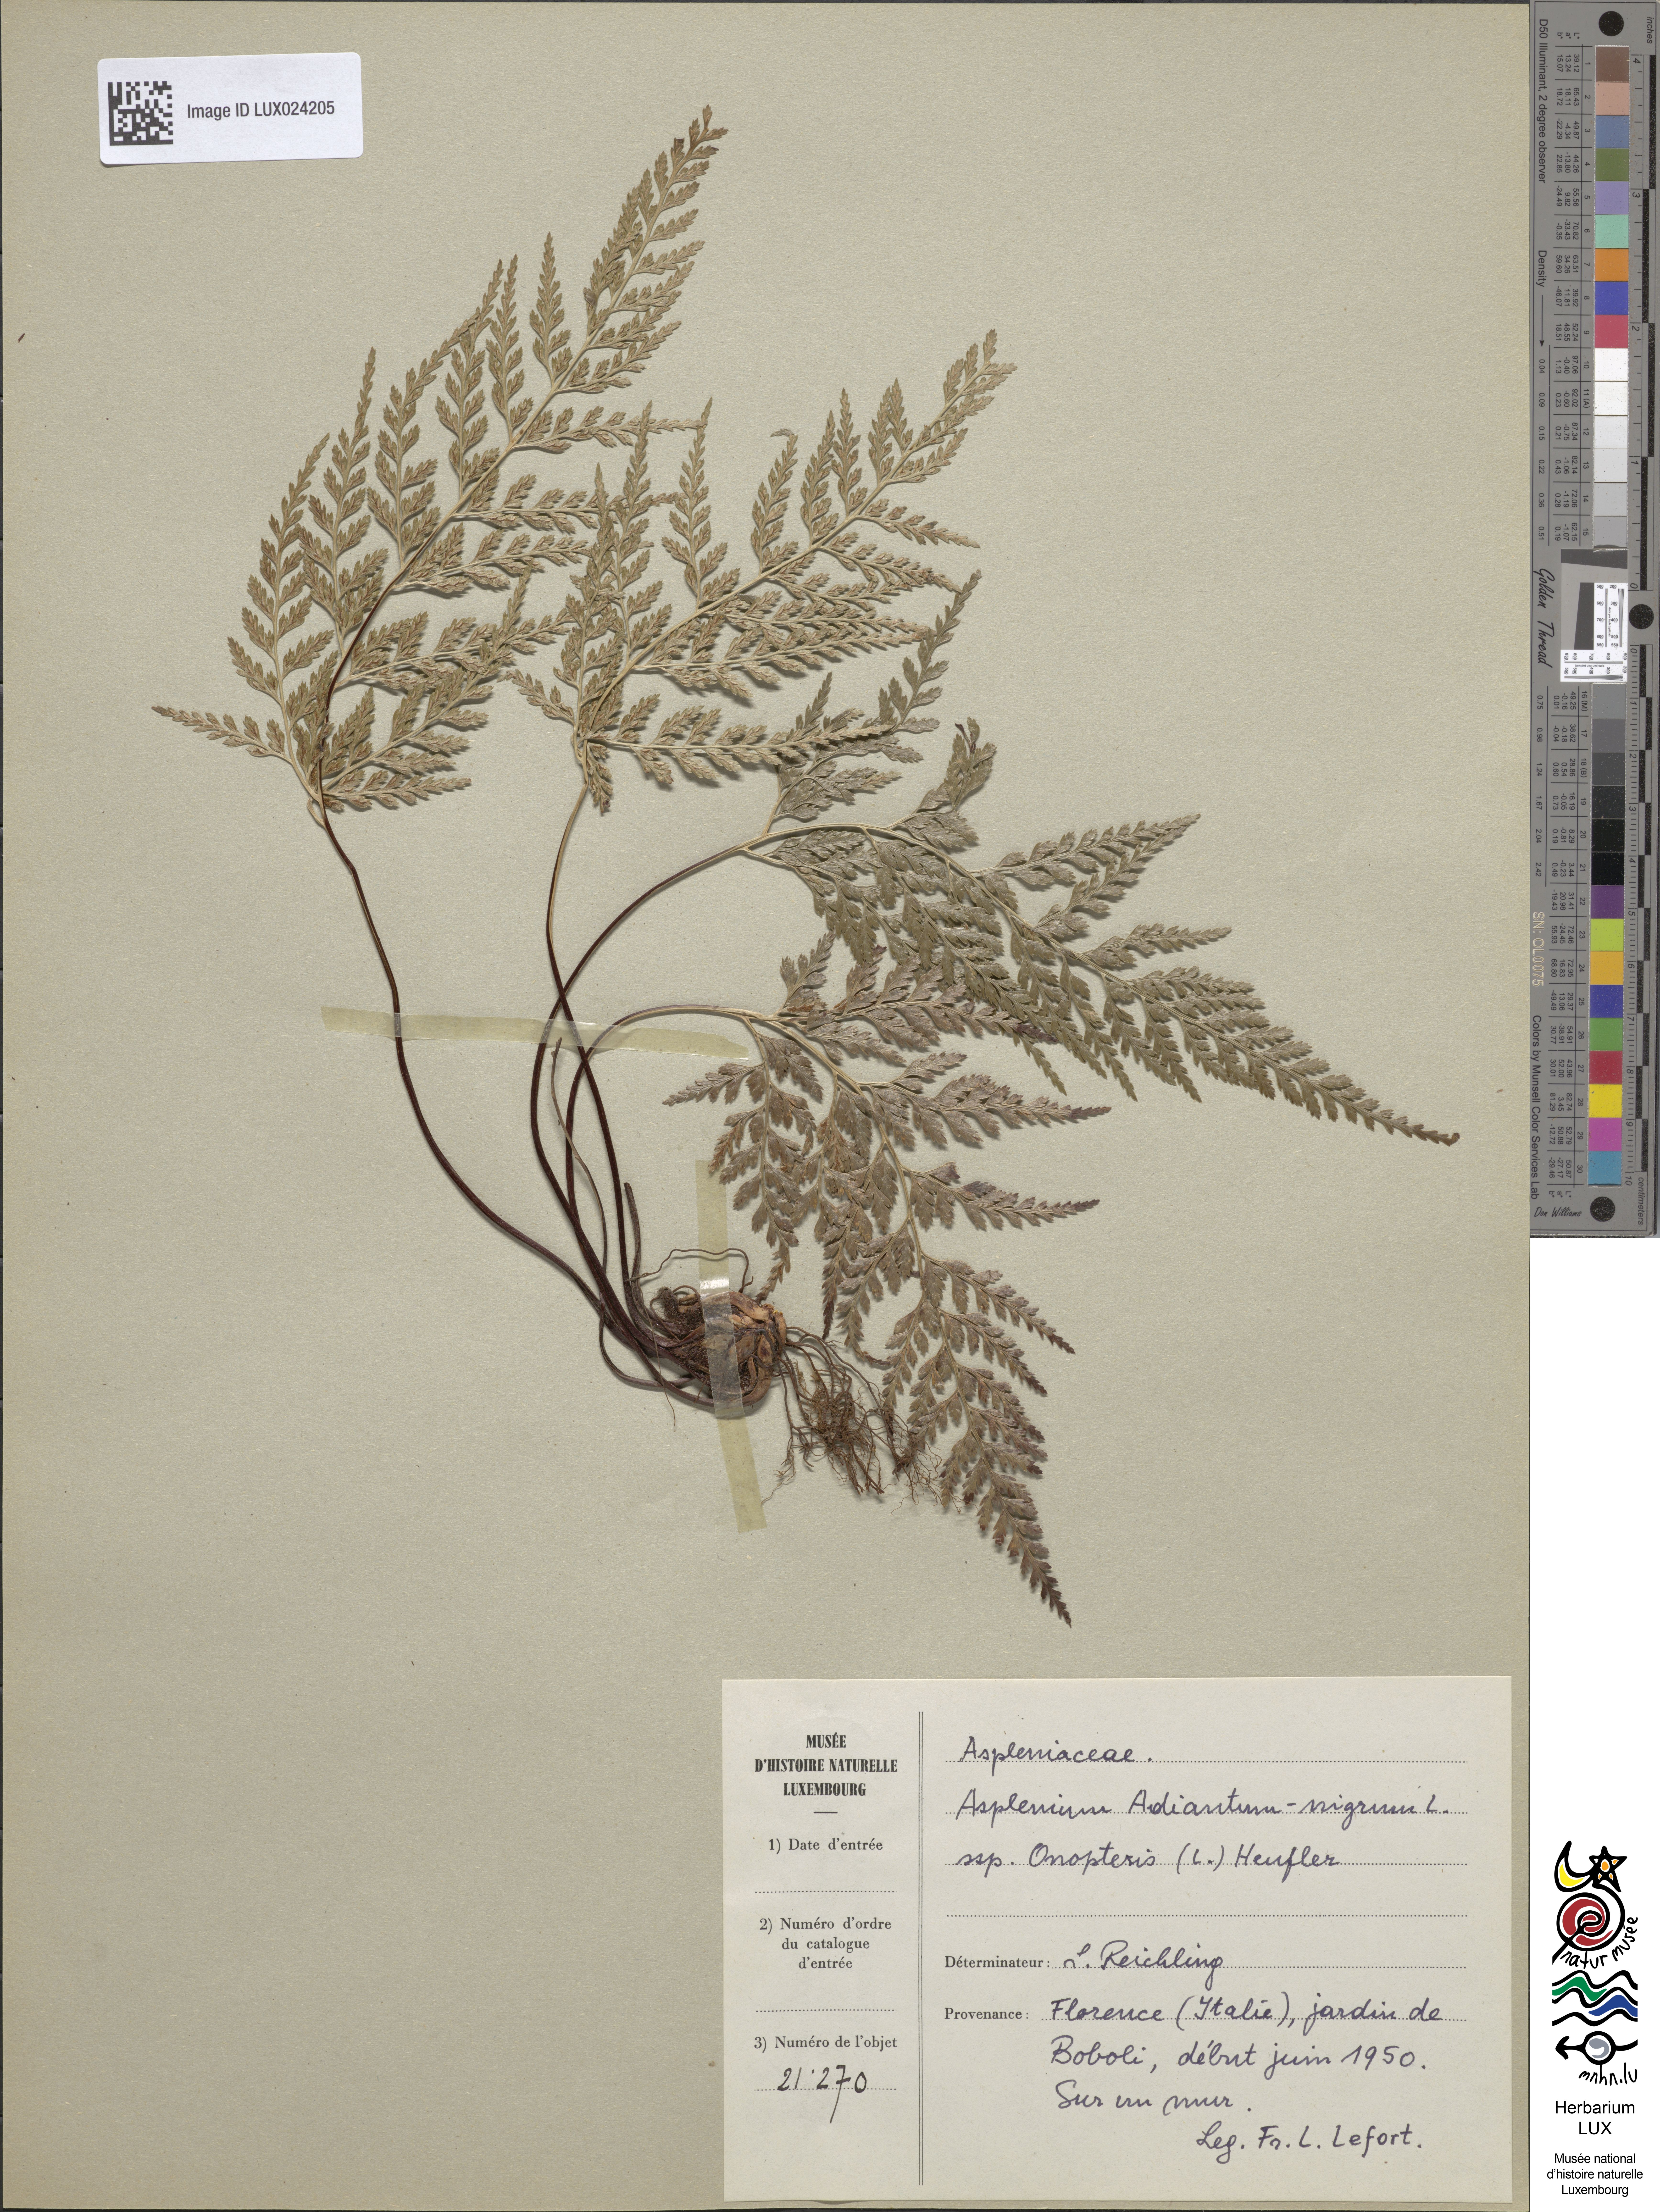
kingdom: Plantae
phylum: Tracheophyta
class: Polypodiopsida
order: Polypodiales
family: Aspleniaceae
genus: Asplenium
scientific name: Asplenium onopteris
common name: Irish spleenwort
